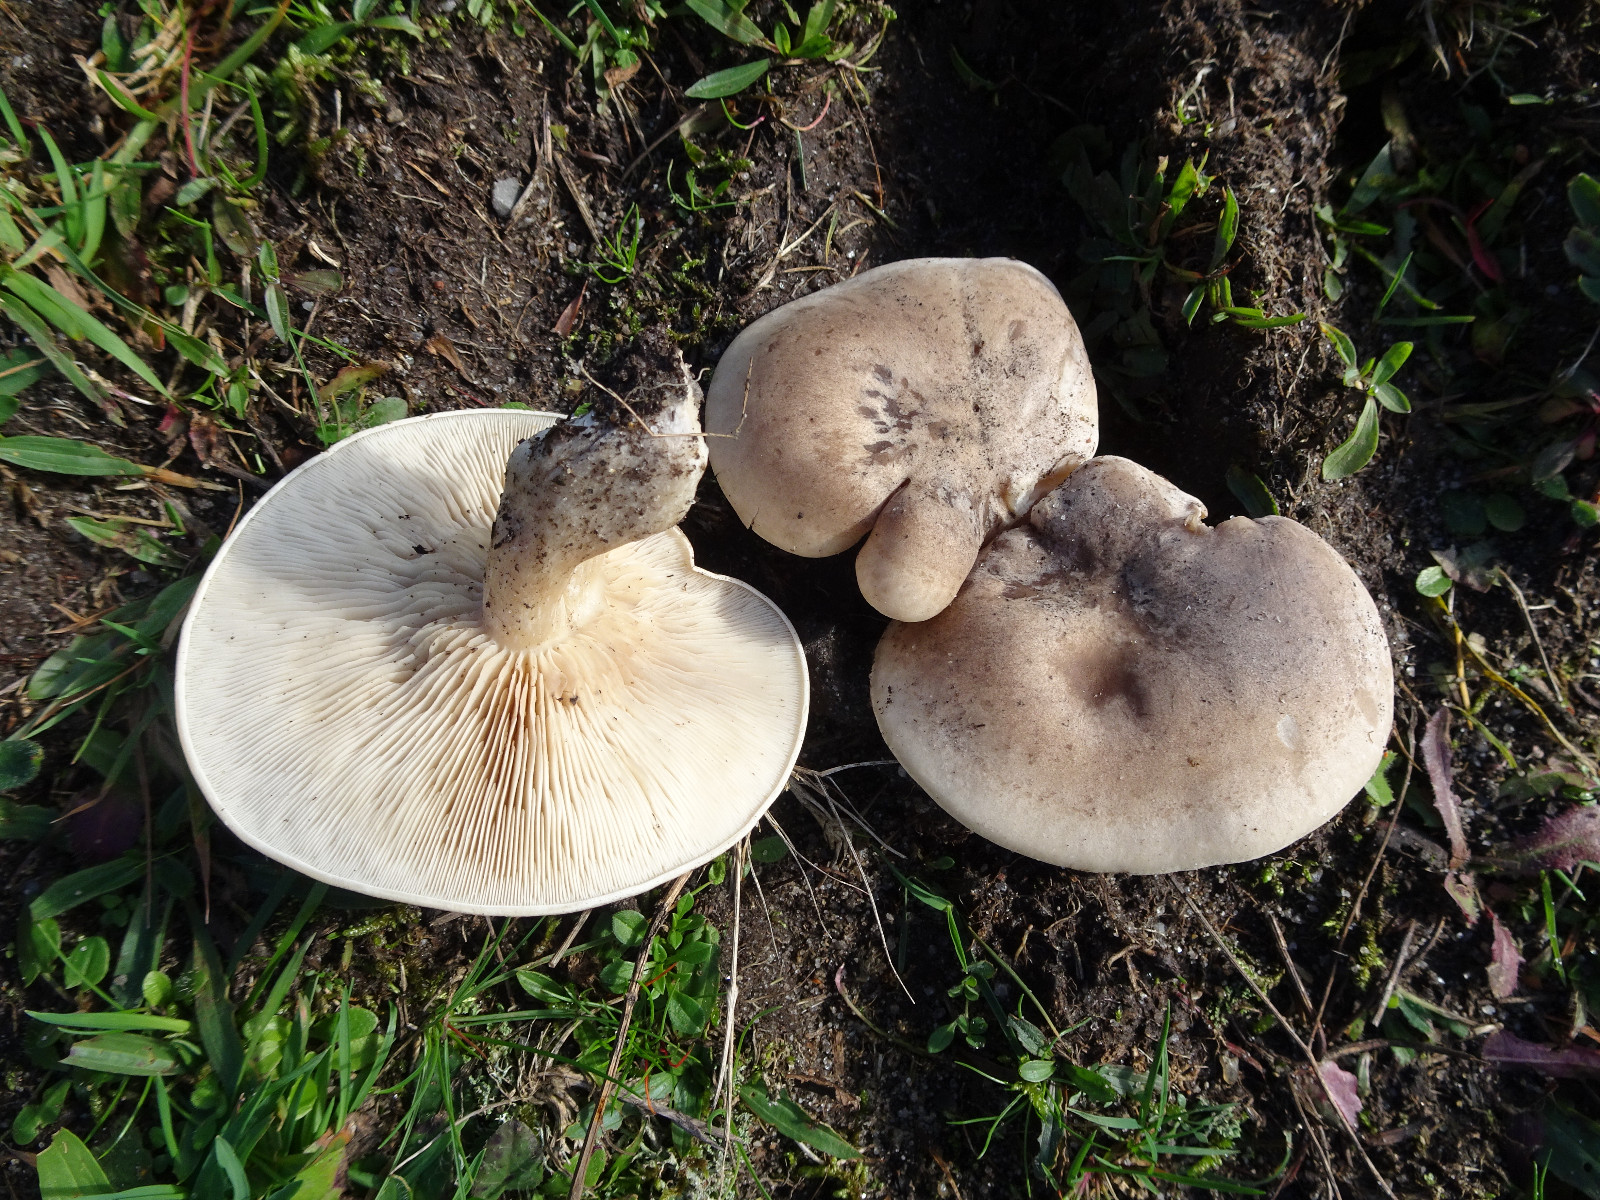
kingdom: Fungi
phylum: Basidiomycota
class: Agaricomycetes
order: Agaricales
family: Tricholomataceae
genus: Lepista
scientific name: Lepista panaeolus
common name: marmoreret hekseringshat
